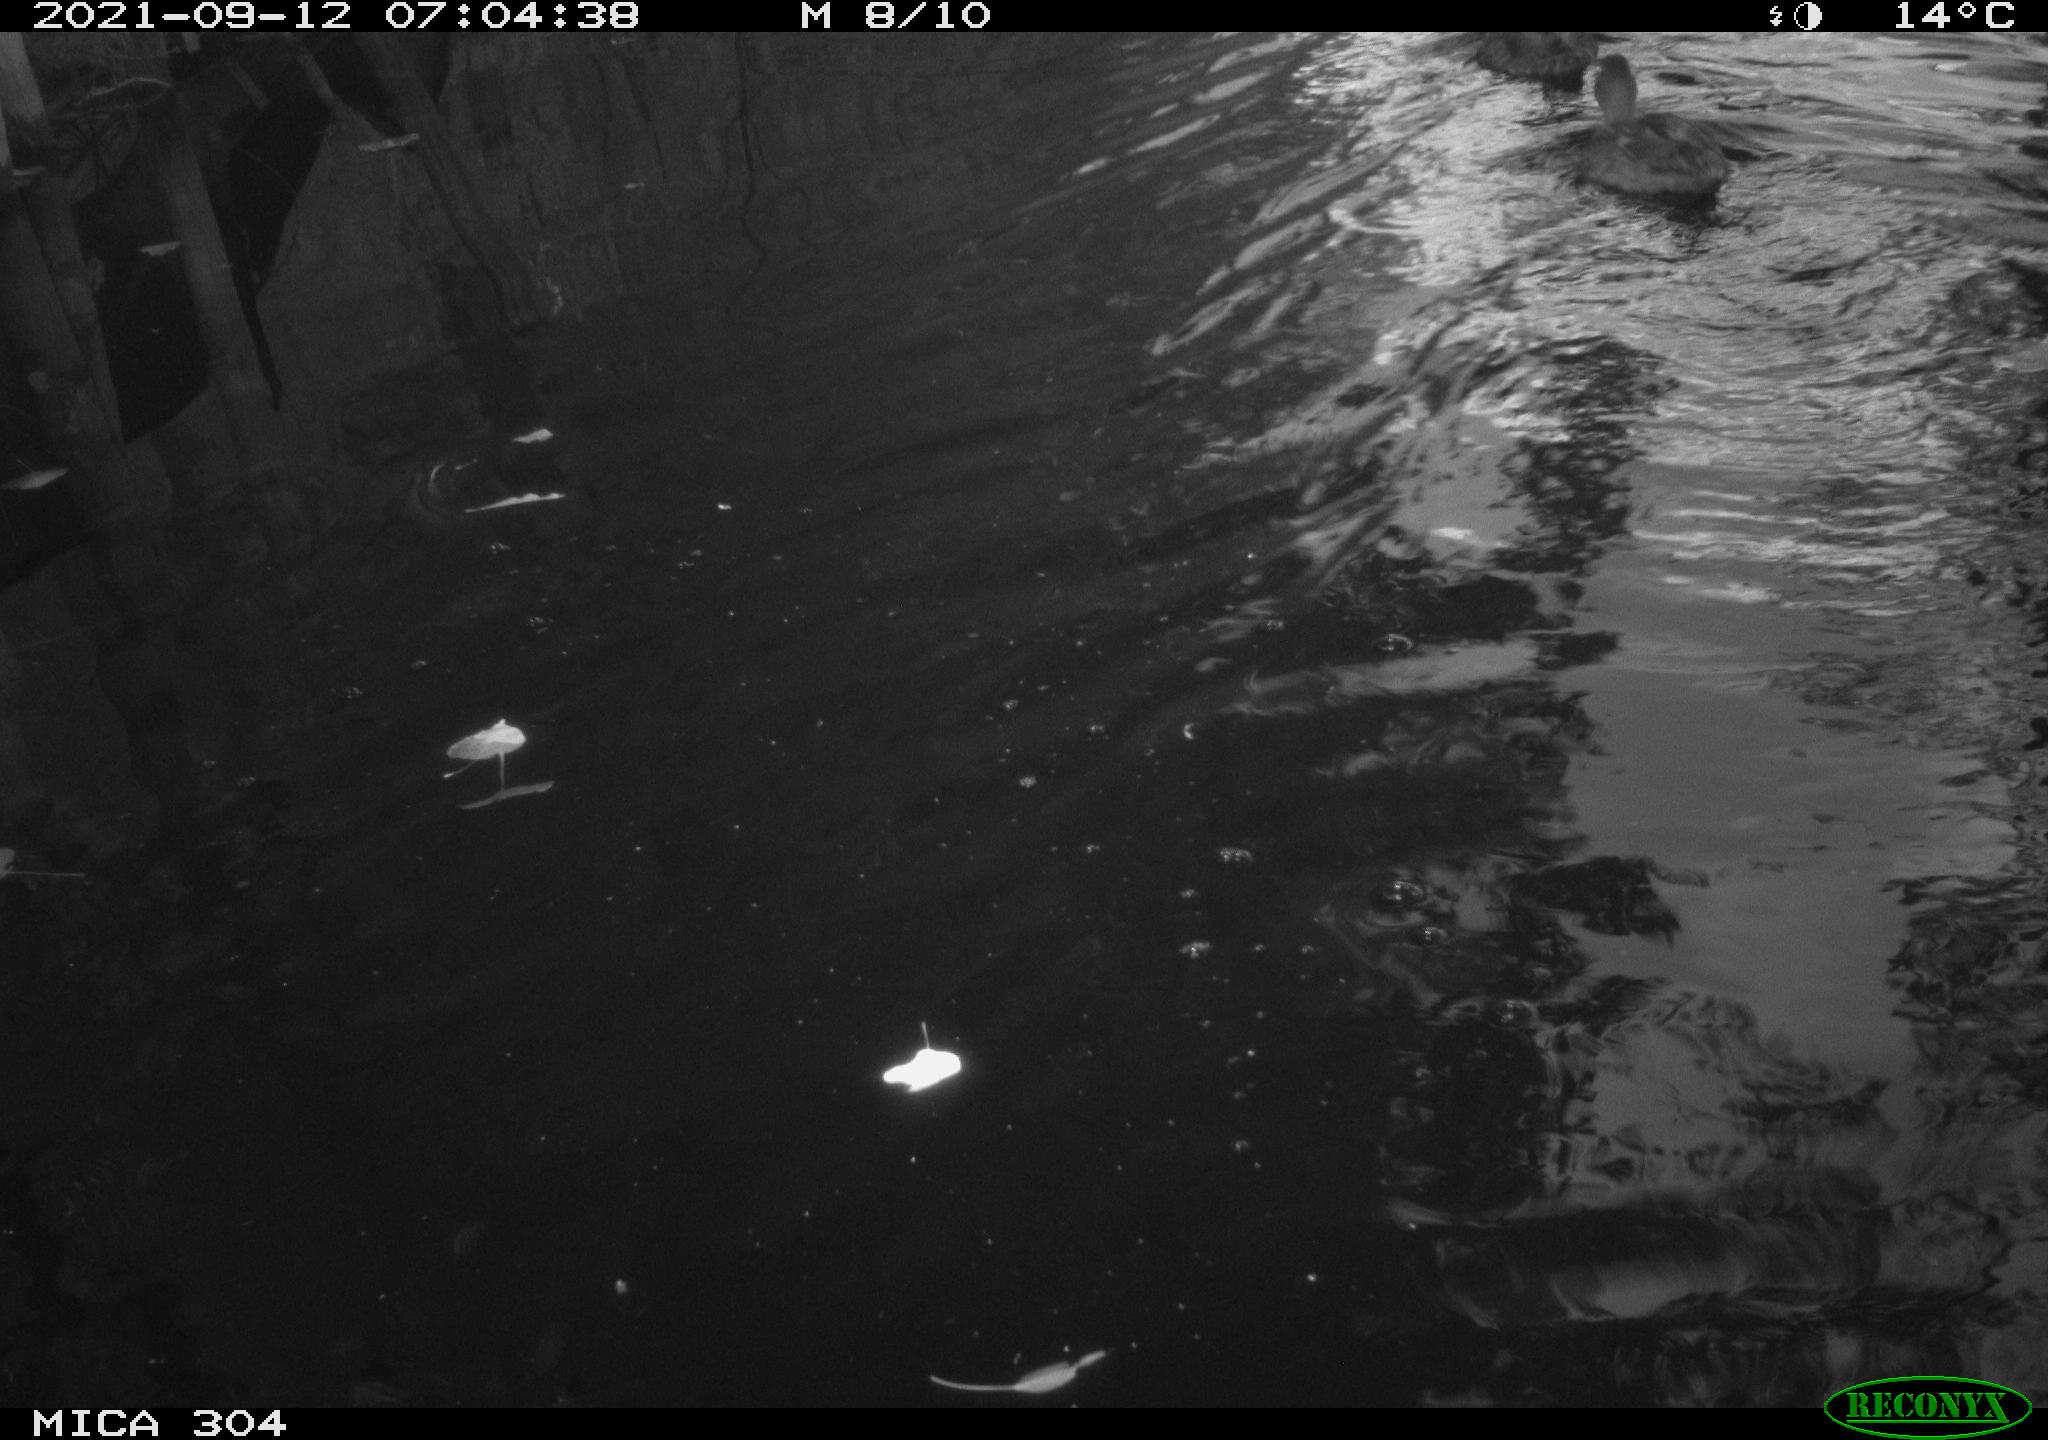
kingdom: Animalia
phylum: Chordata
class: Aves
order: Anseriformes
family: Anatidae
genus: Mareca
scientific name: Mareca strepera
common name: Gadwall
